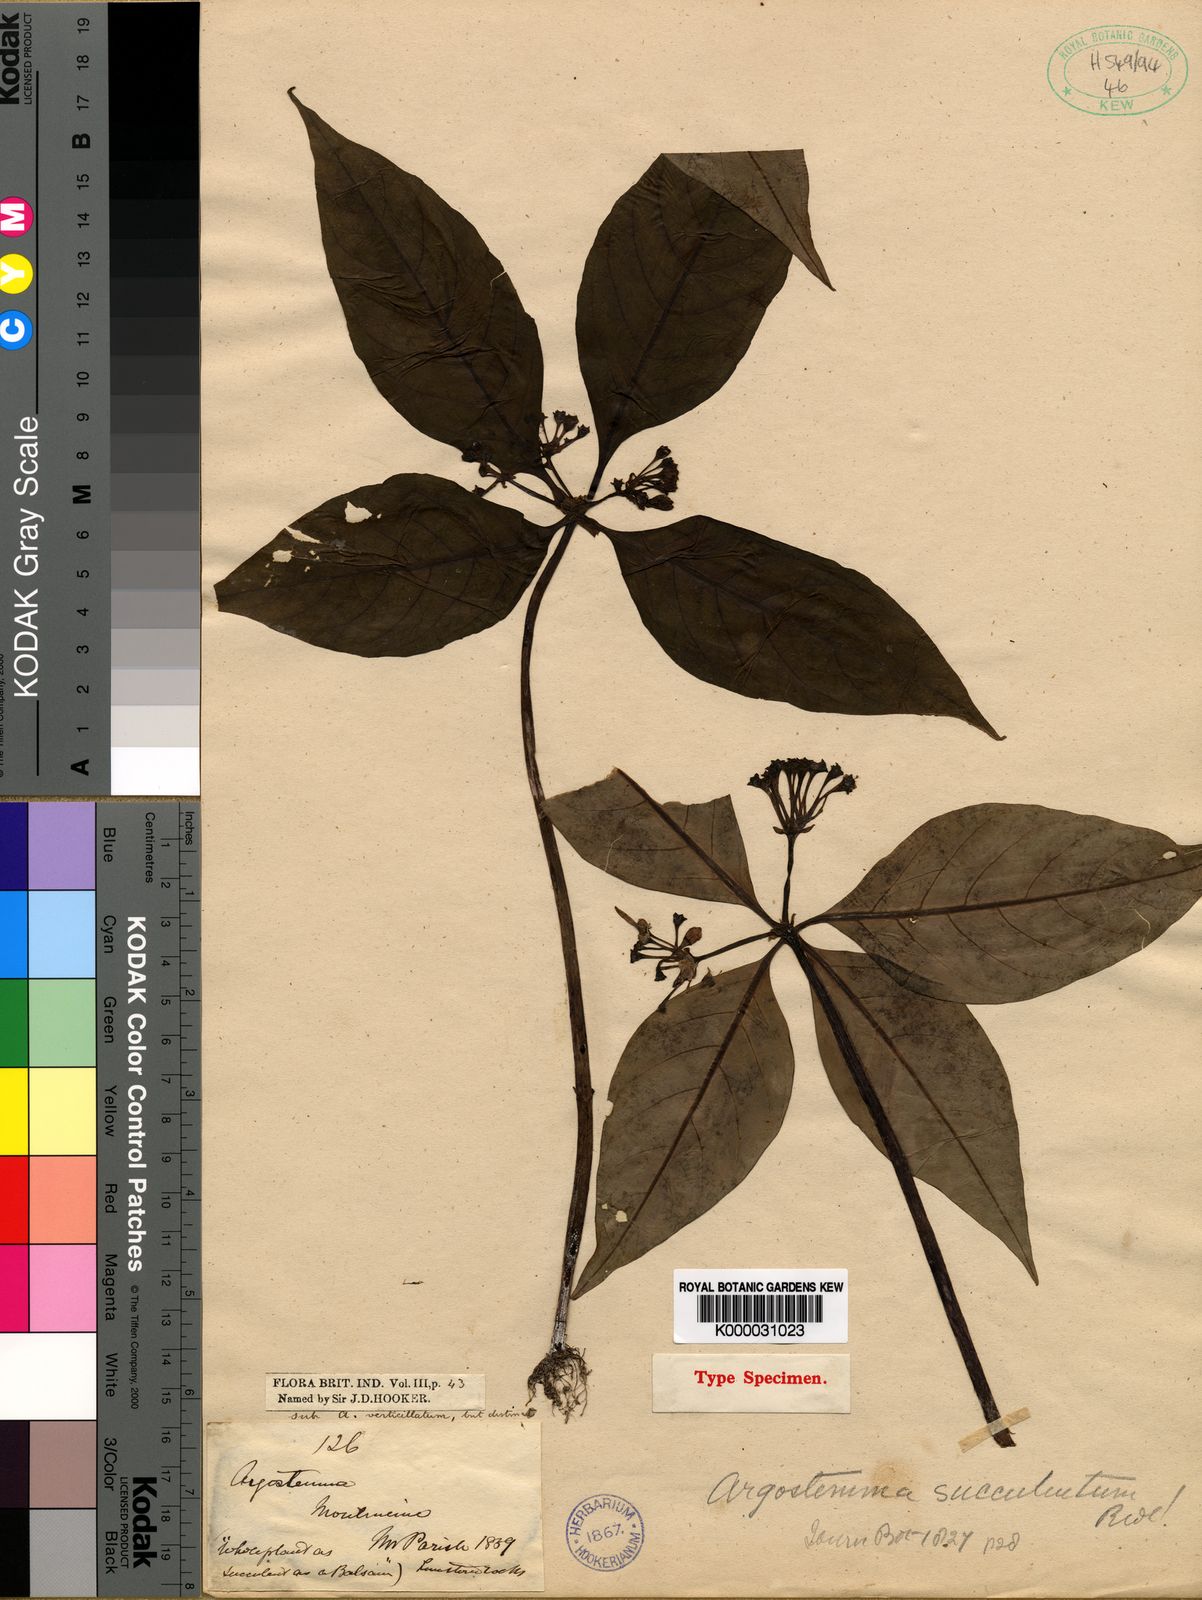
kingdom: Plantae
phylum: Tracheophyta
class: Magnoliopsida
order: Gentianales
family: Rubiaceae
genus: Argostemma
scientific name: Argostemma succulentum
